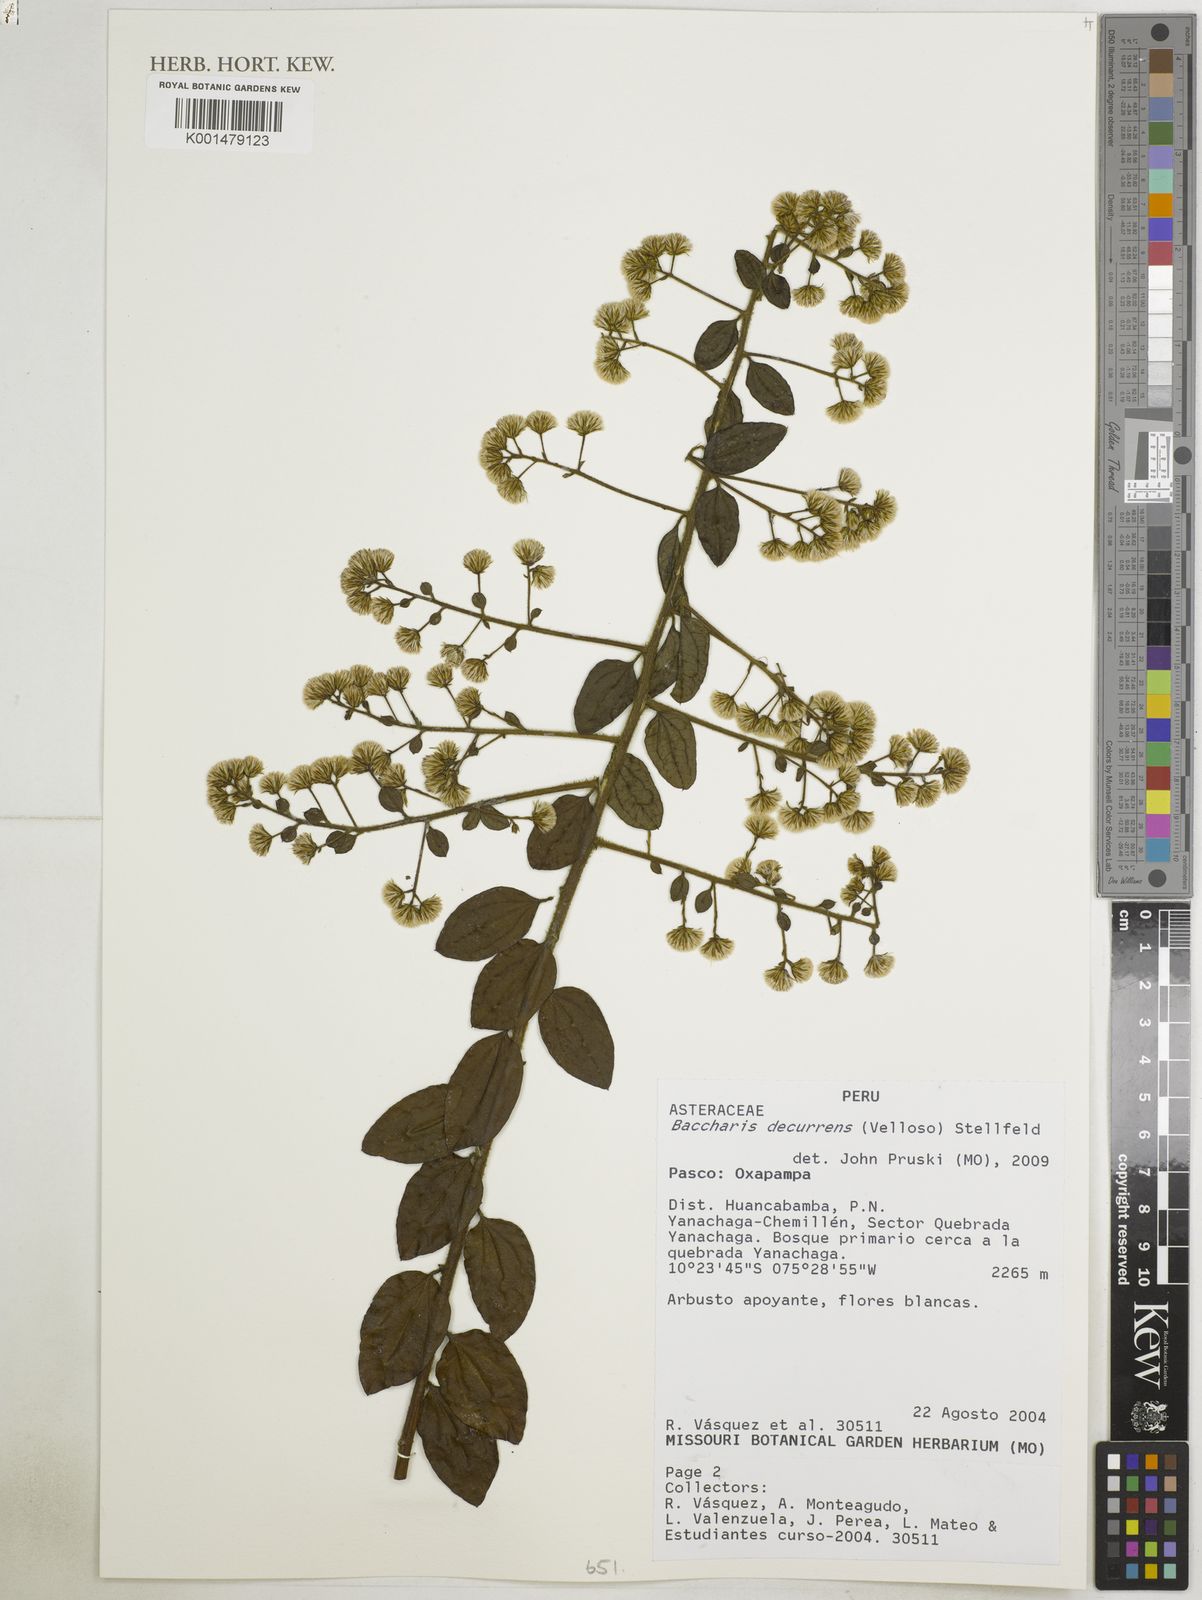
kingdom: Plantae
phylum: Tracheophyta
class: Magnoliopsida
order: Asterales
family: Asteraceae
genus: Baccharis
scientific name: Baccharis genistelloides
